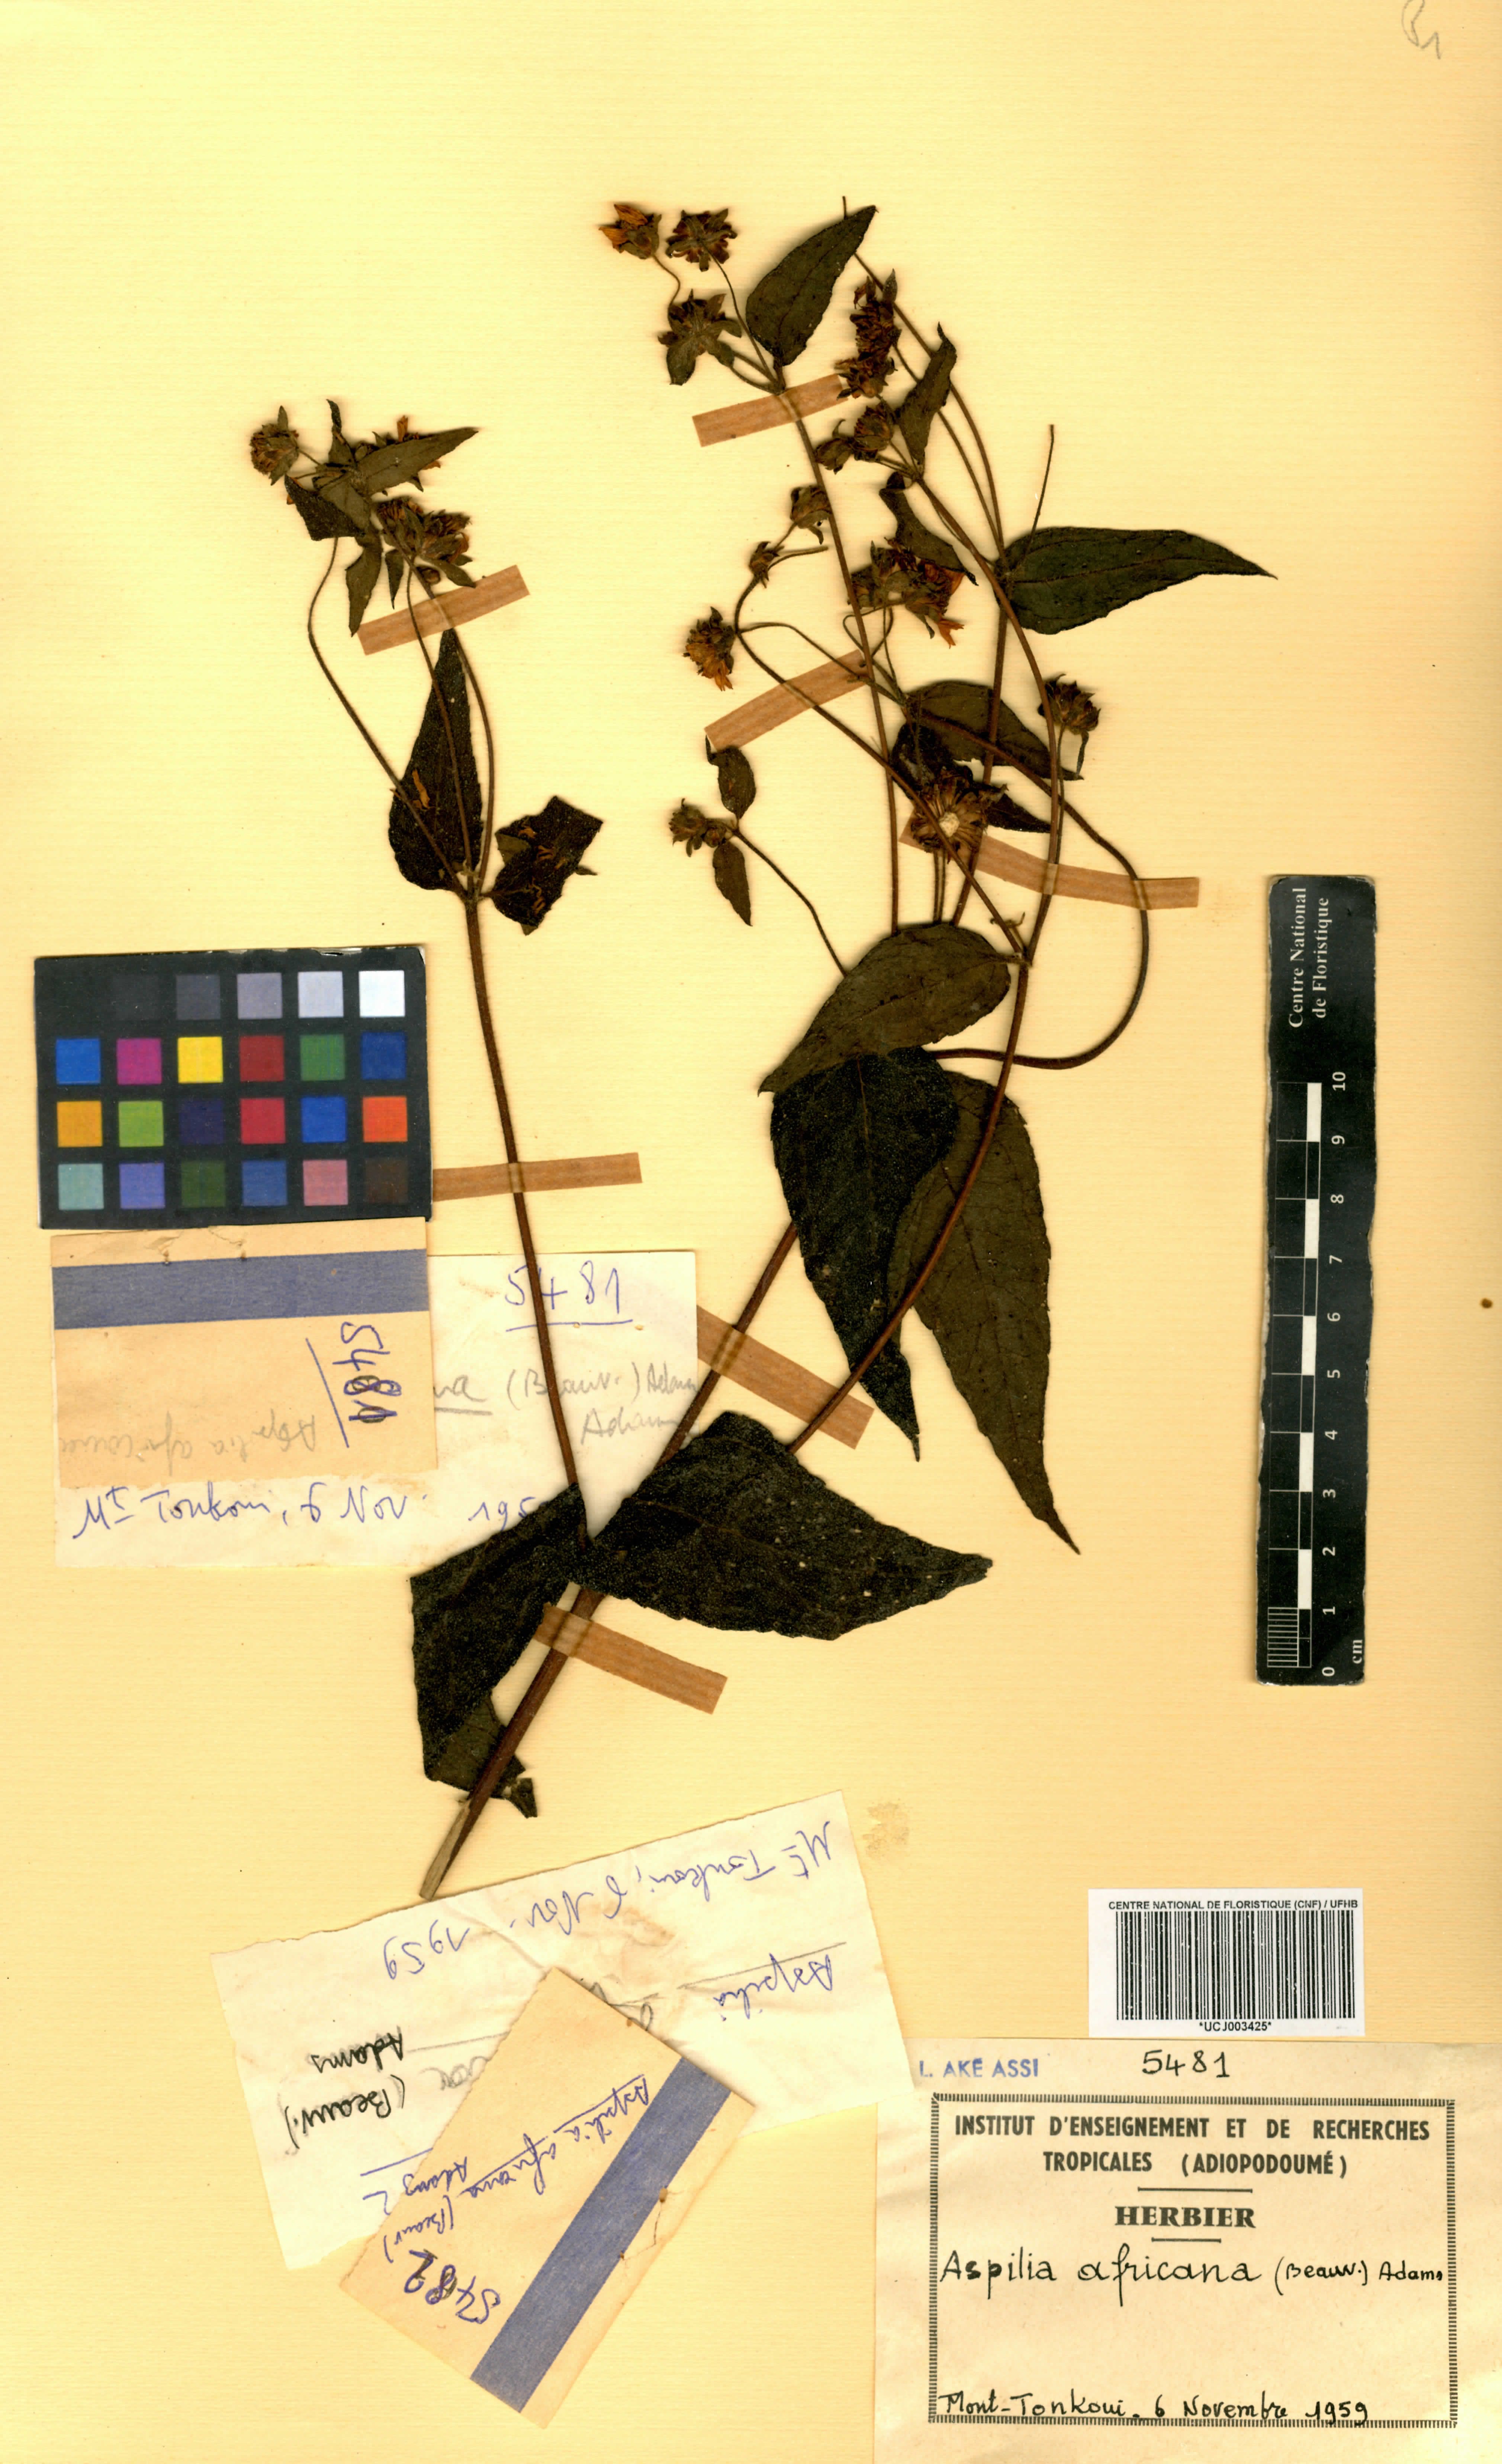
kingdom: Plantae
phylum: Tracheophyta
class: Magnoliopsida
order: Asterales
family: Asteraceae
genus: Aspilia
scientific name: Aspilia africana
